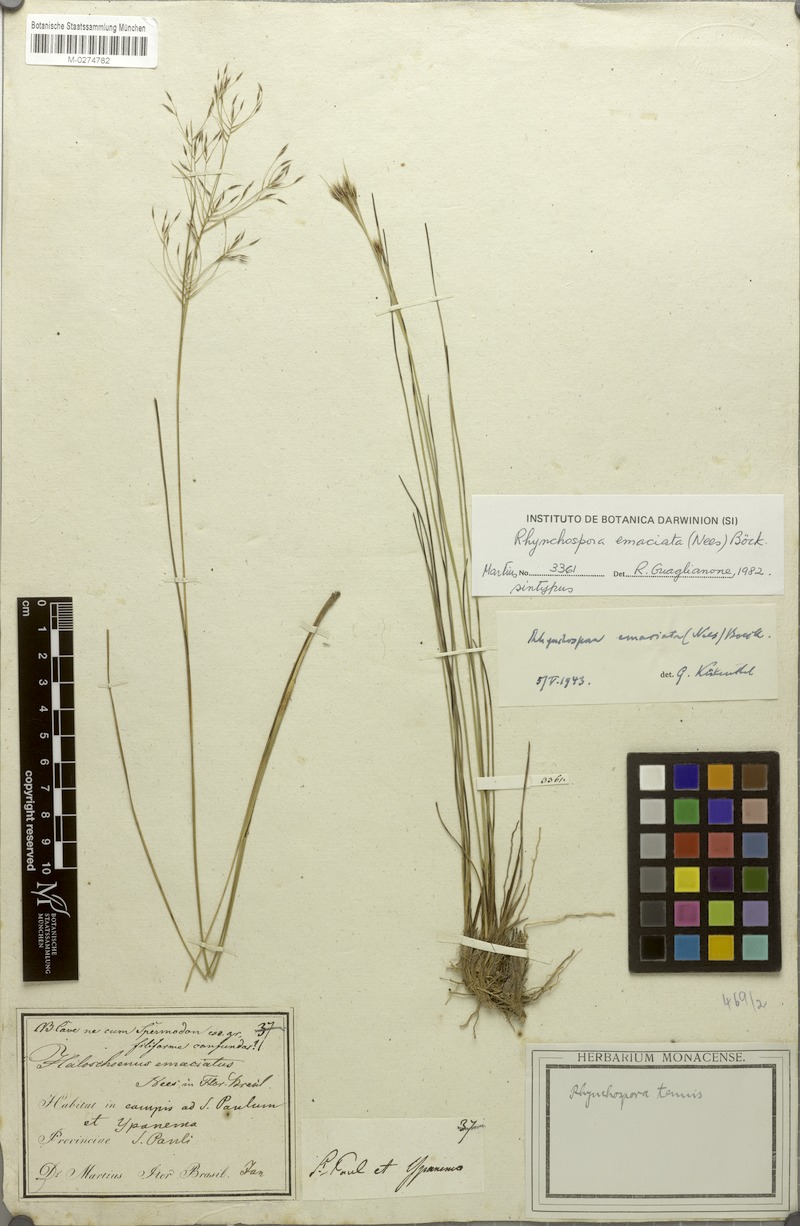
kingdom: Plantae
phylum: Tracheophyta
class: Liliopsida
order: Poales
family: Cyperaceae
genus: Rhynchospora
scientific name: Rhynchospora emaciata
